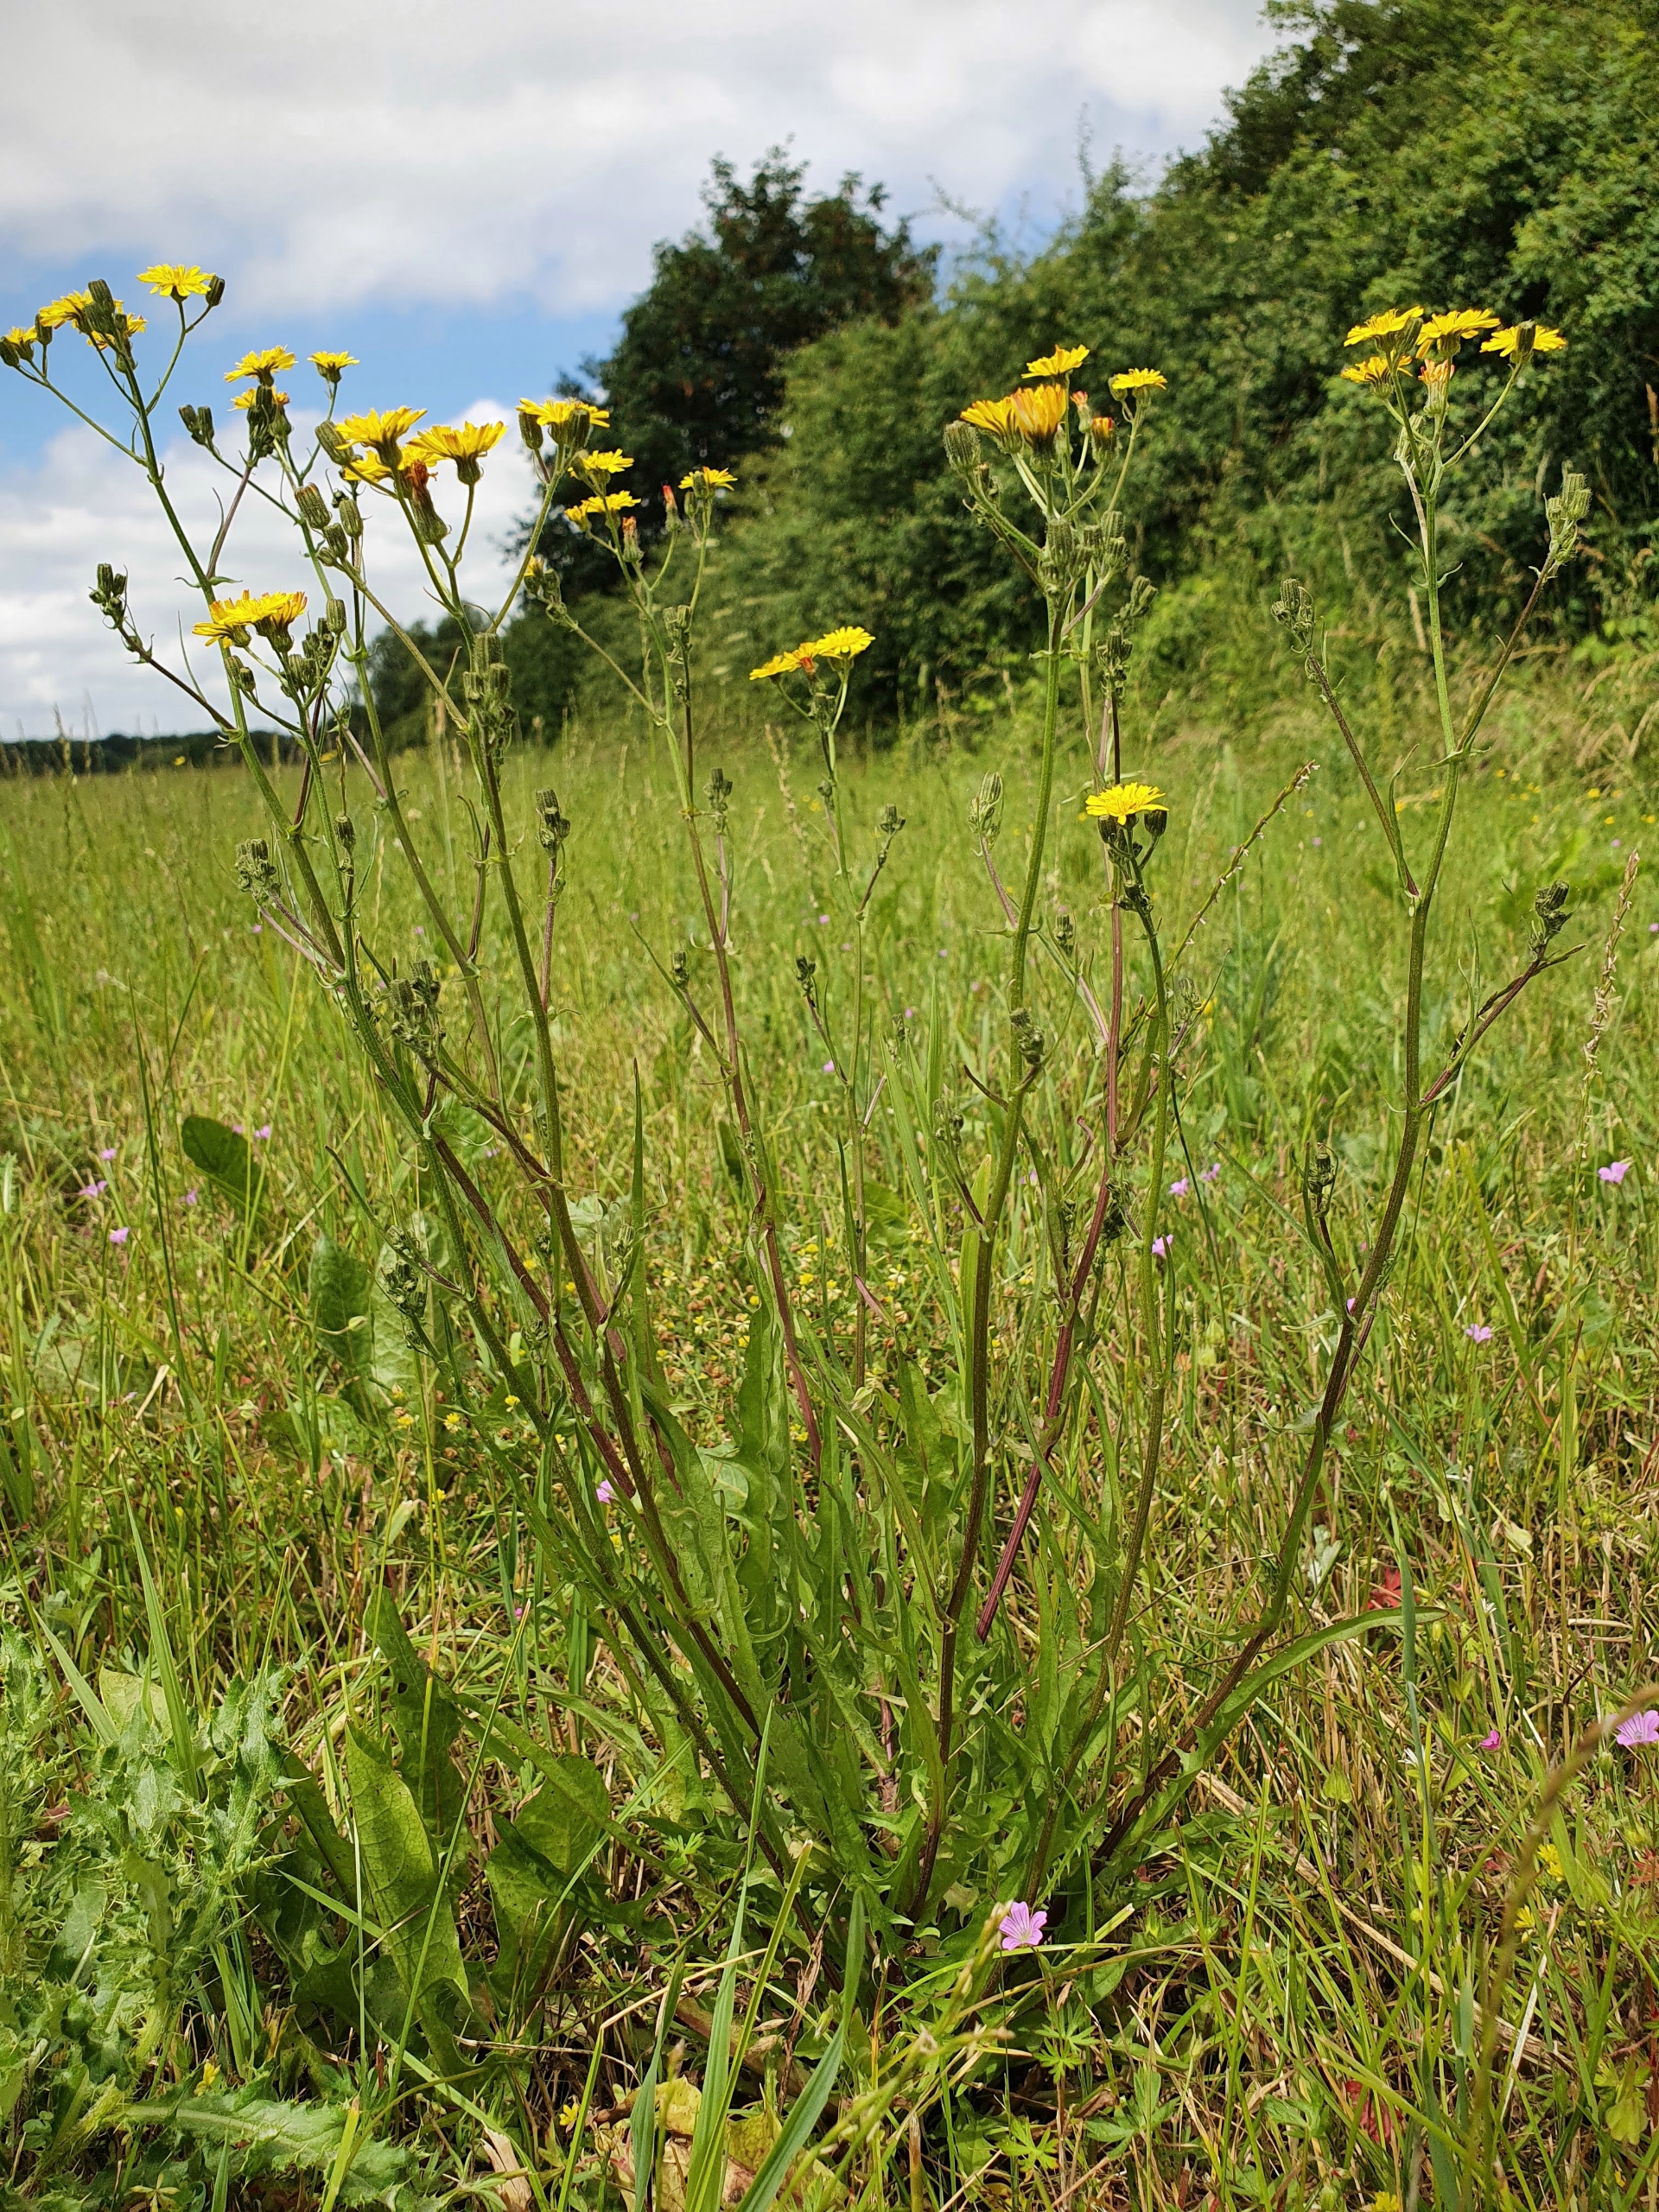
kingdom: Plantae
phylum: Tracheophyta
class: Magnoliopsida
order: Asterales
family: Asteraceae
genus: Crepis
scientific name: Crepis capillaris
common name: Grøn høgeskæg
